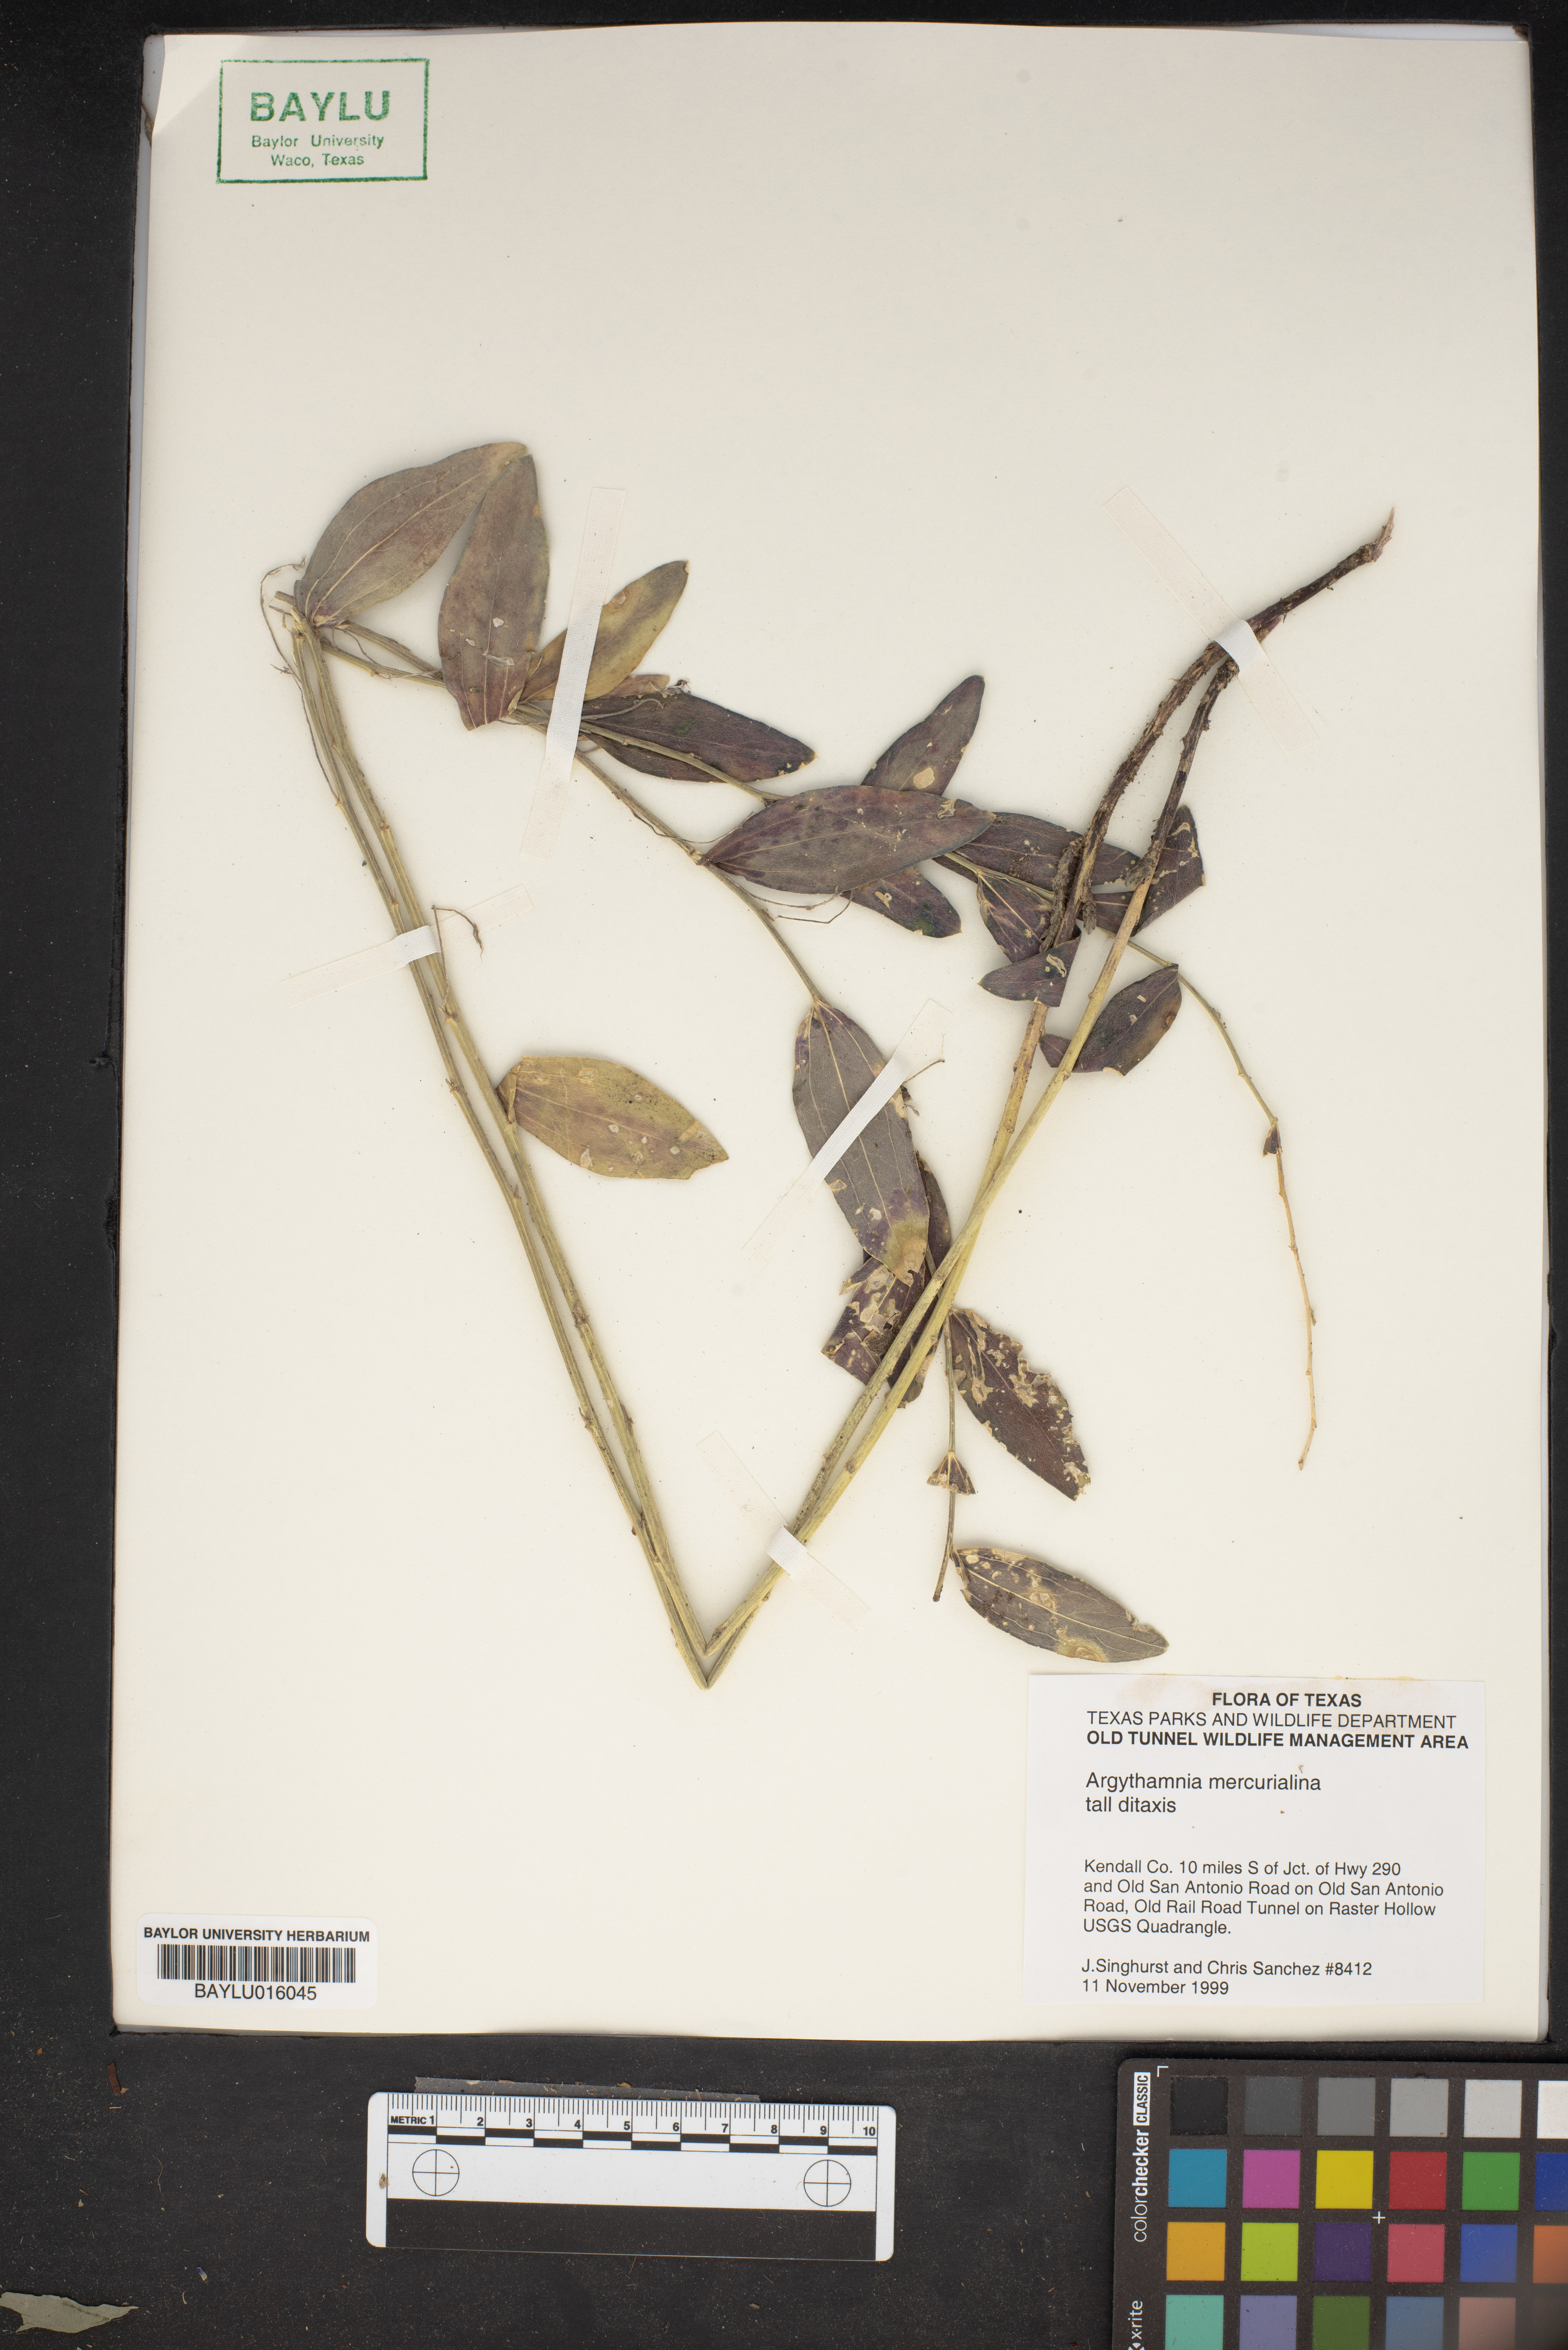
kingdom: Plantae
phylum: Tracheophyta
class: Magnoliopsida
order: Malpighiales
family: Euphorbiaceae
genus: Ditaxis
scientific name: Ditaxis mercurialina
